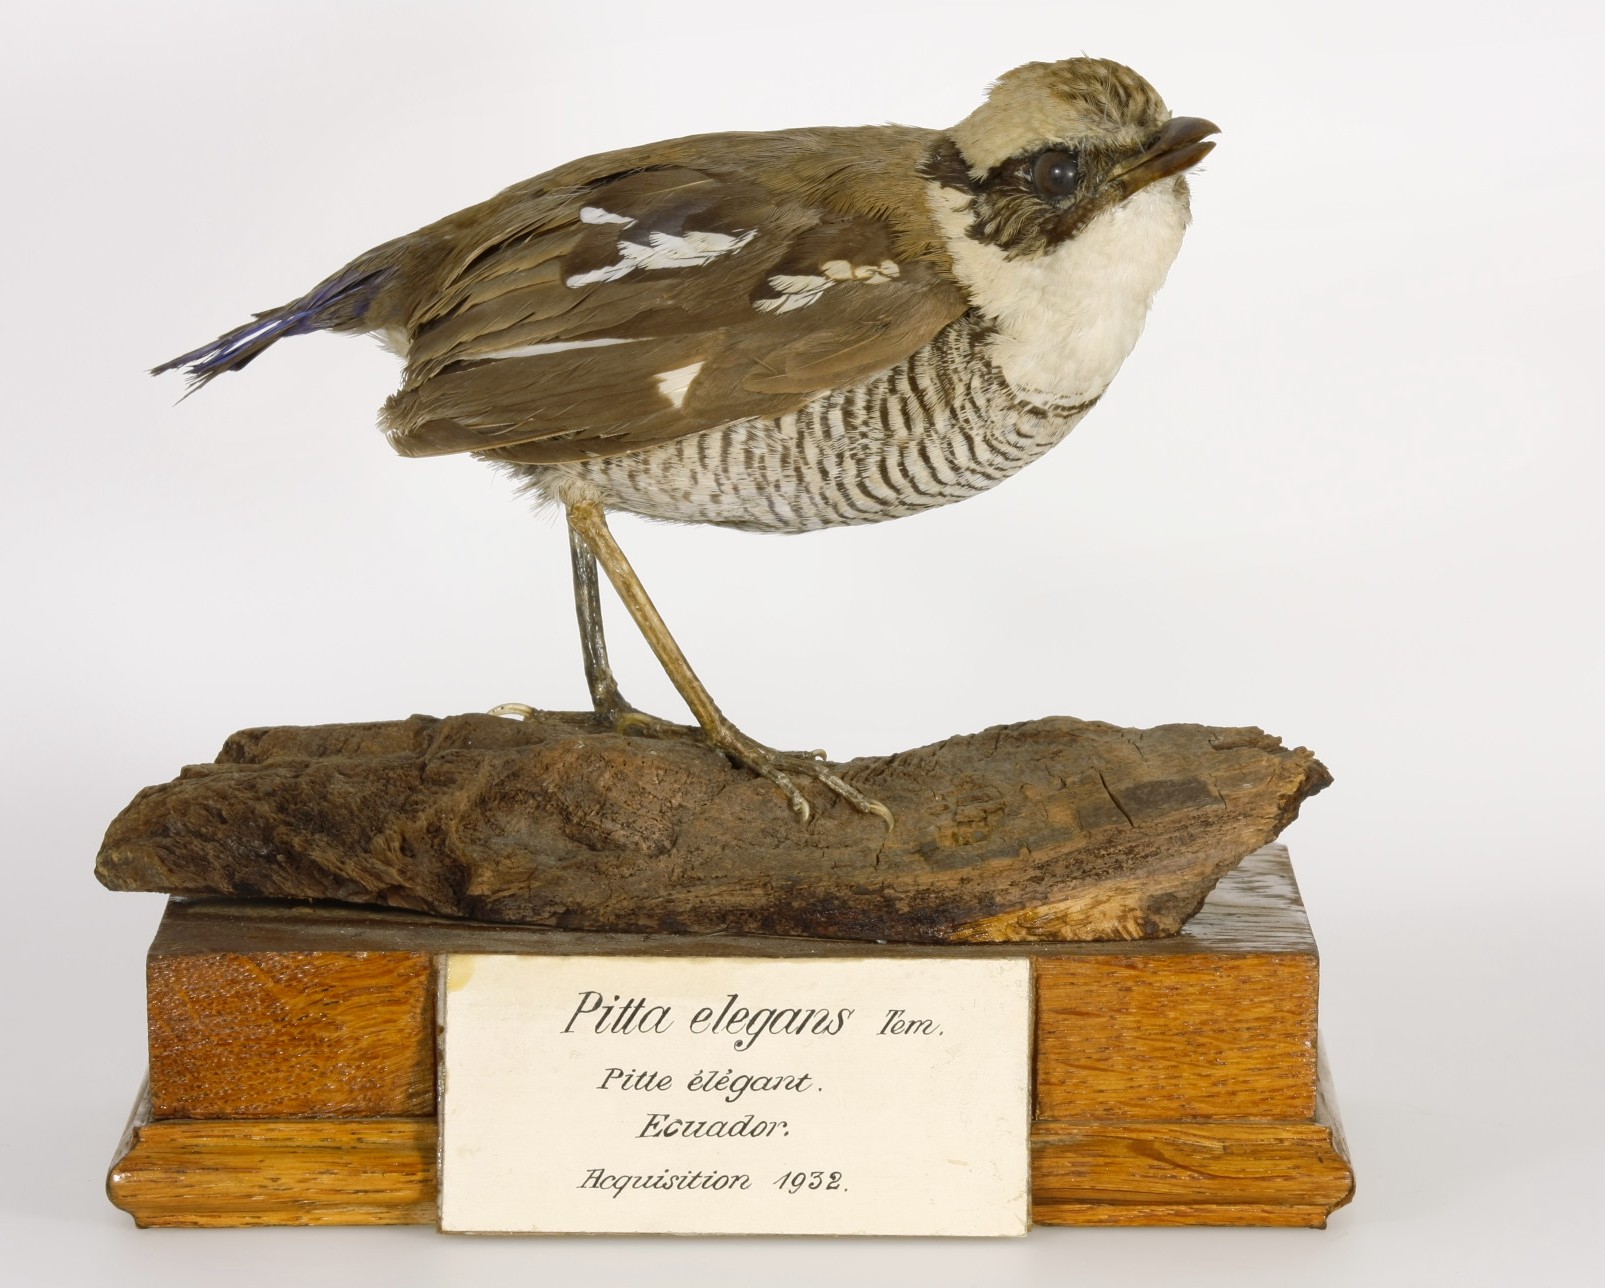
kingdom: Animalia
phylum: Chordata
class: Aves
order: Passeriformes
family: Pittidae
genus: Pitta
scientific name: Pitta guajana
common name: Banded pitta
